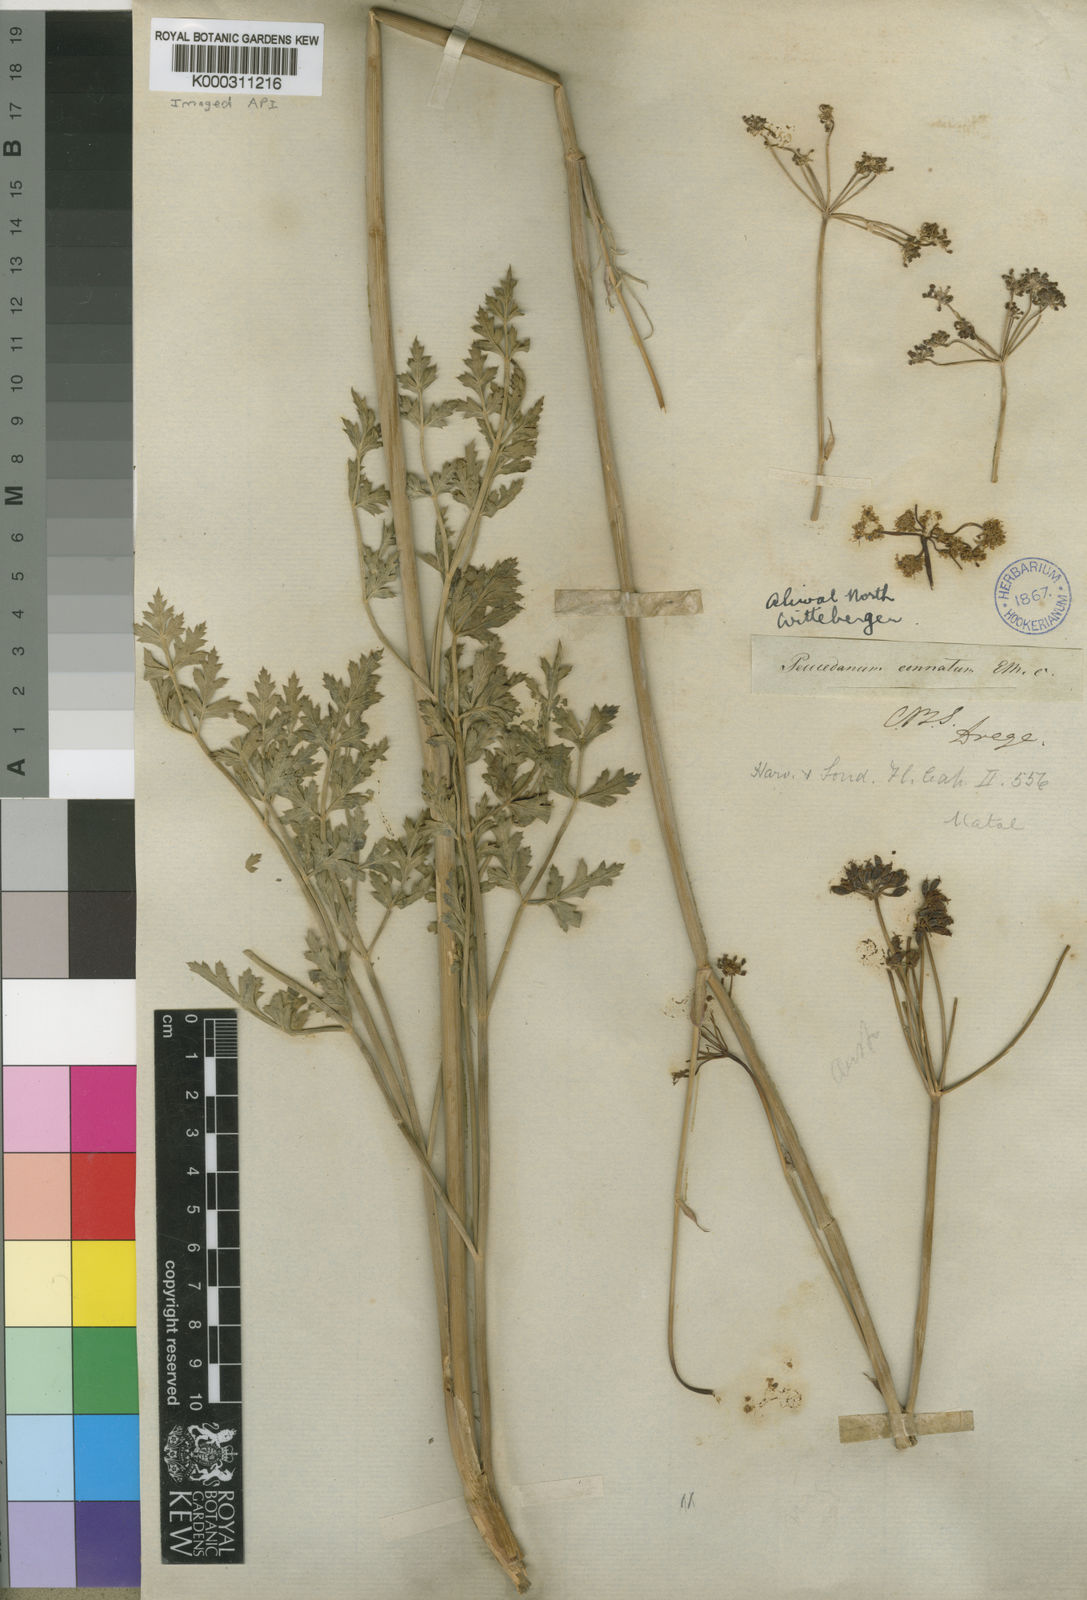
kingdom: Plantae
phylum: Tracheophyta
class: Magnoliopsida
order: Apiales
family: Apiaceae
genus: Peucedanum
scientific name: Peucedanum
